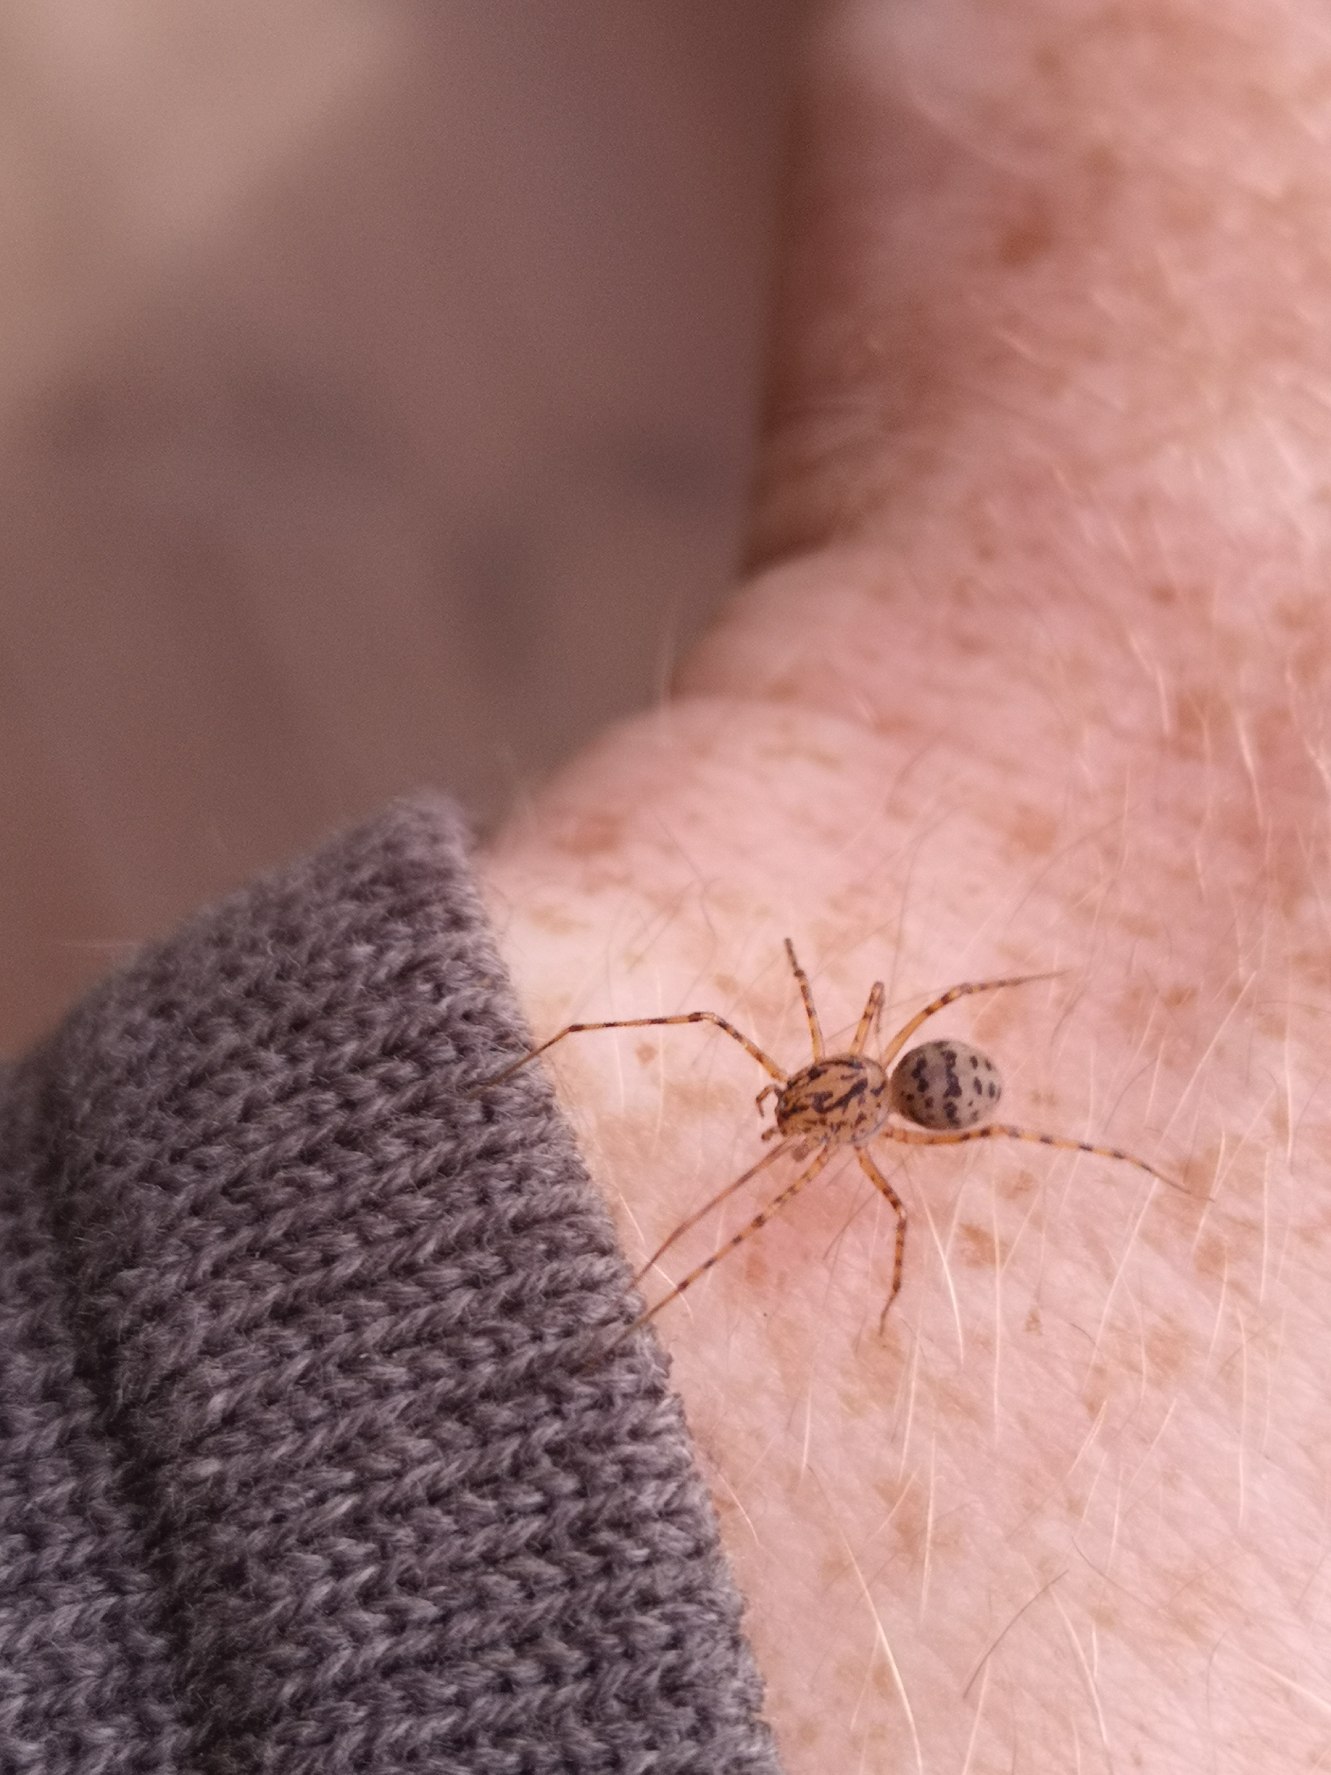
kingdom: Animalia
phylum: Arthropoda
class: Arachnida
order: Araneae
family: Scytodidae
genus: Scytodes
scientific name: Scytodes thoracica
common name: Spytteedderkop
